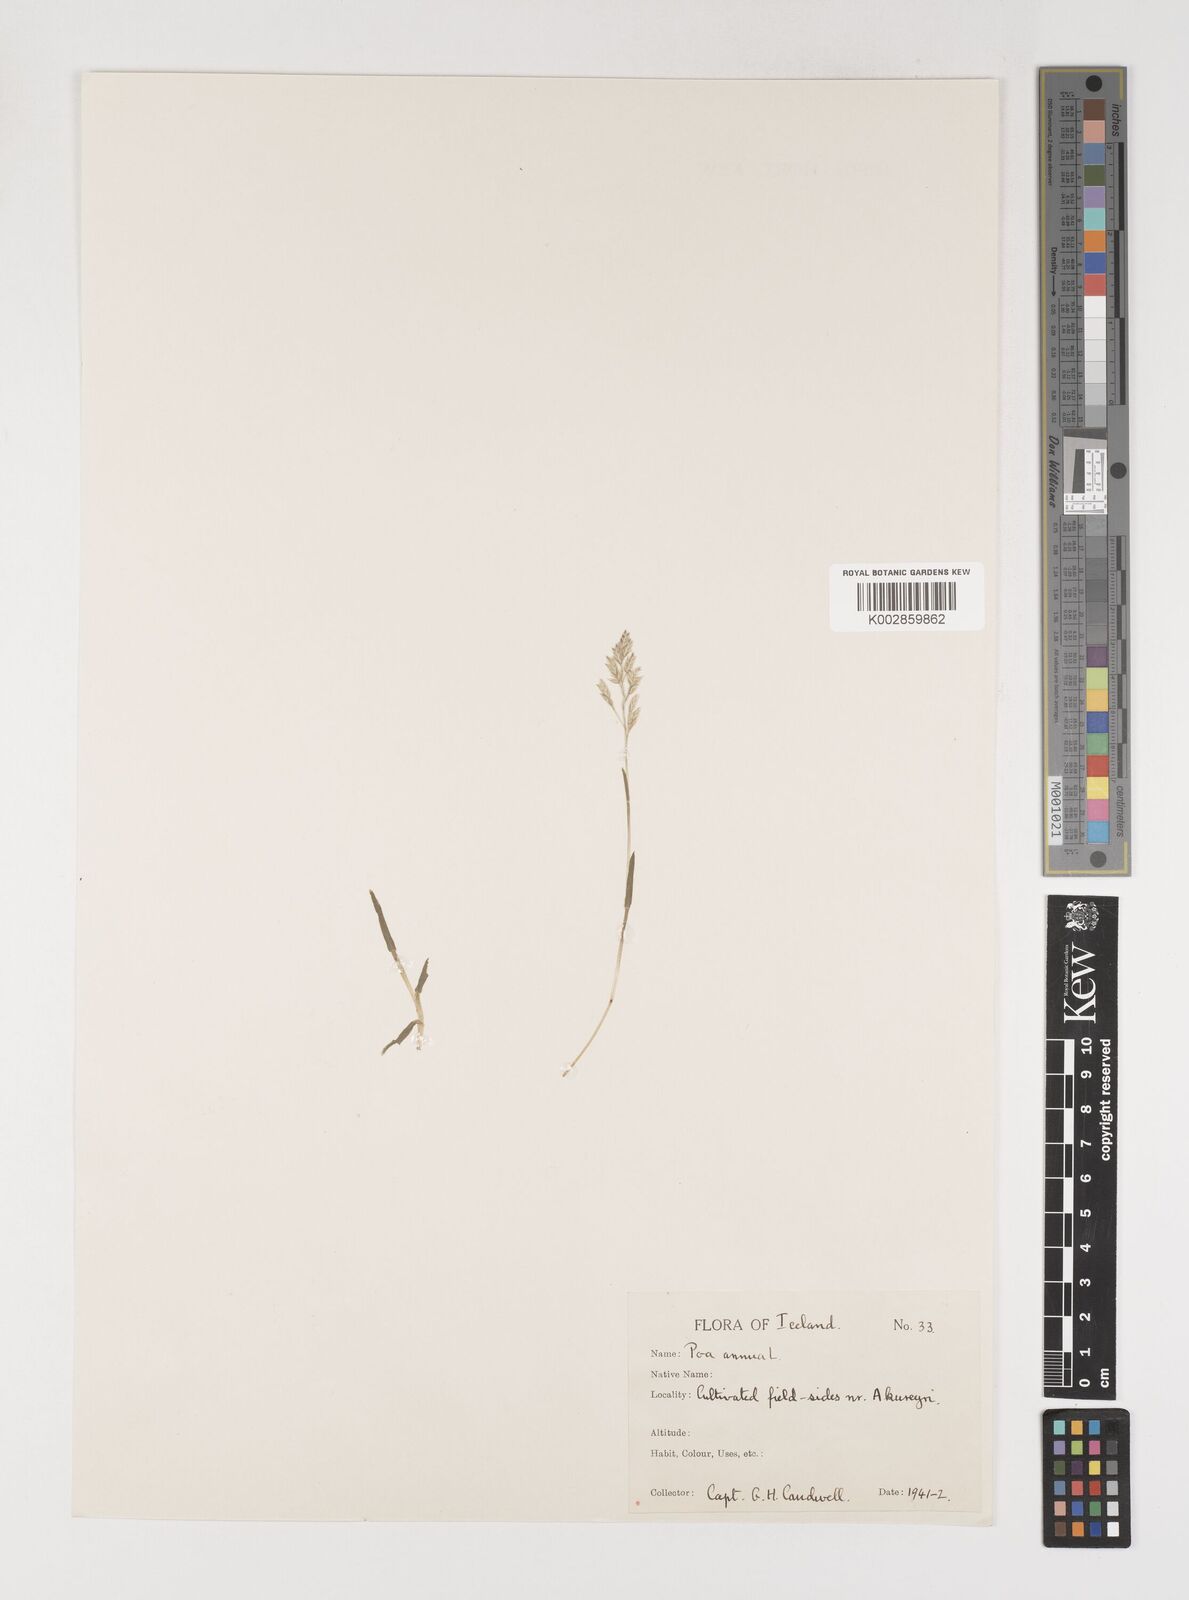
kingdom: Plantae
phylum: Tracheophyta
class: Liliopsida
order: Poales
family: Poaceae
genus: Poa
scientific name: Poa annua
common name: Annual bluegrass
